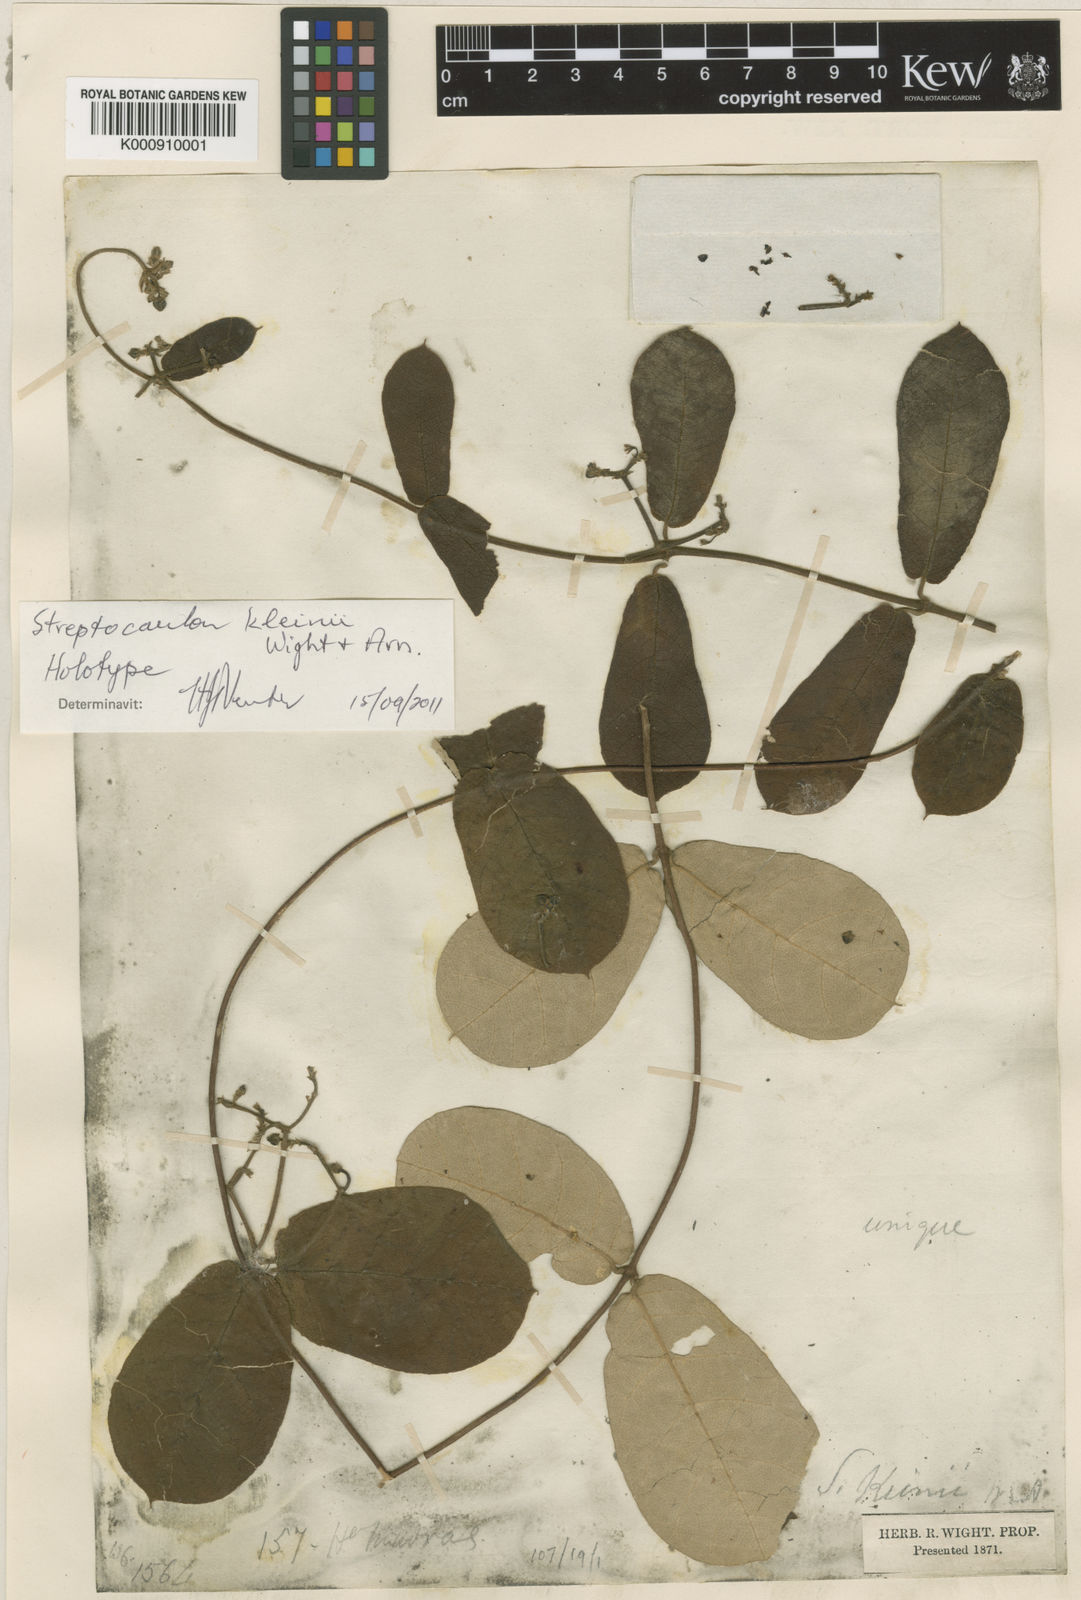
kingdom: Plantae
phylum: Tracheophyta
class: Magnoliopsida
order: Gentianales
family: Apocynaceae
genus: Streptocaulon
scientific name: Streptocaulon kleinii
